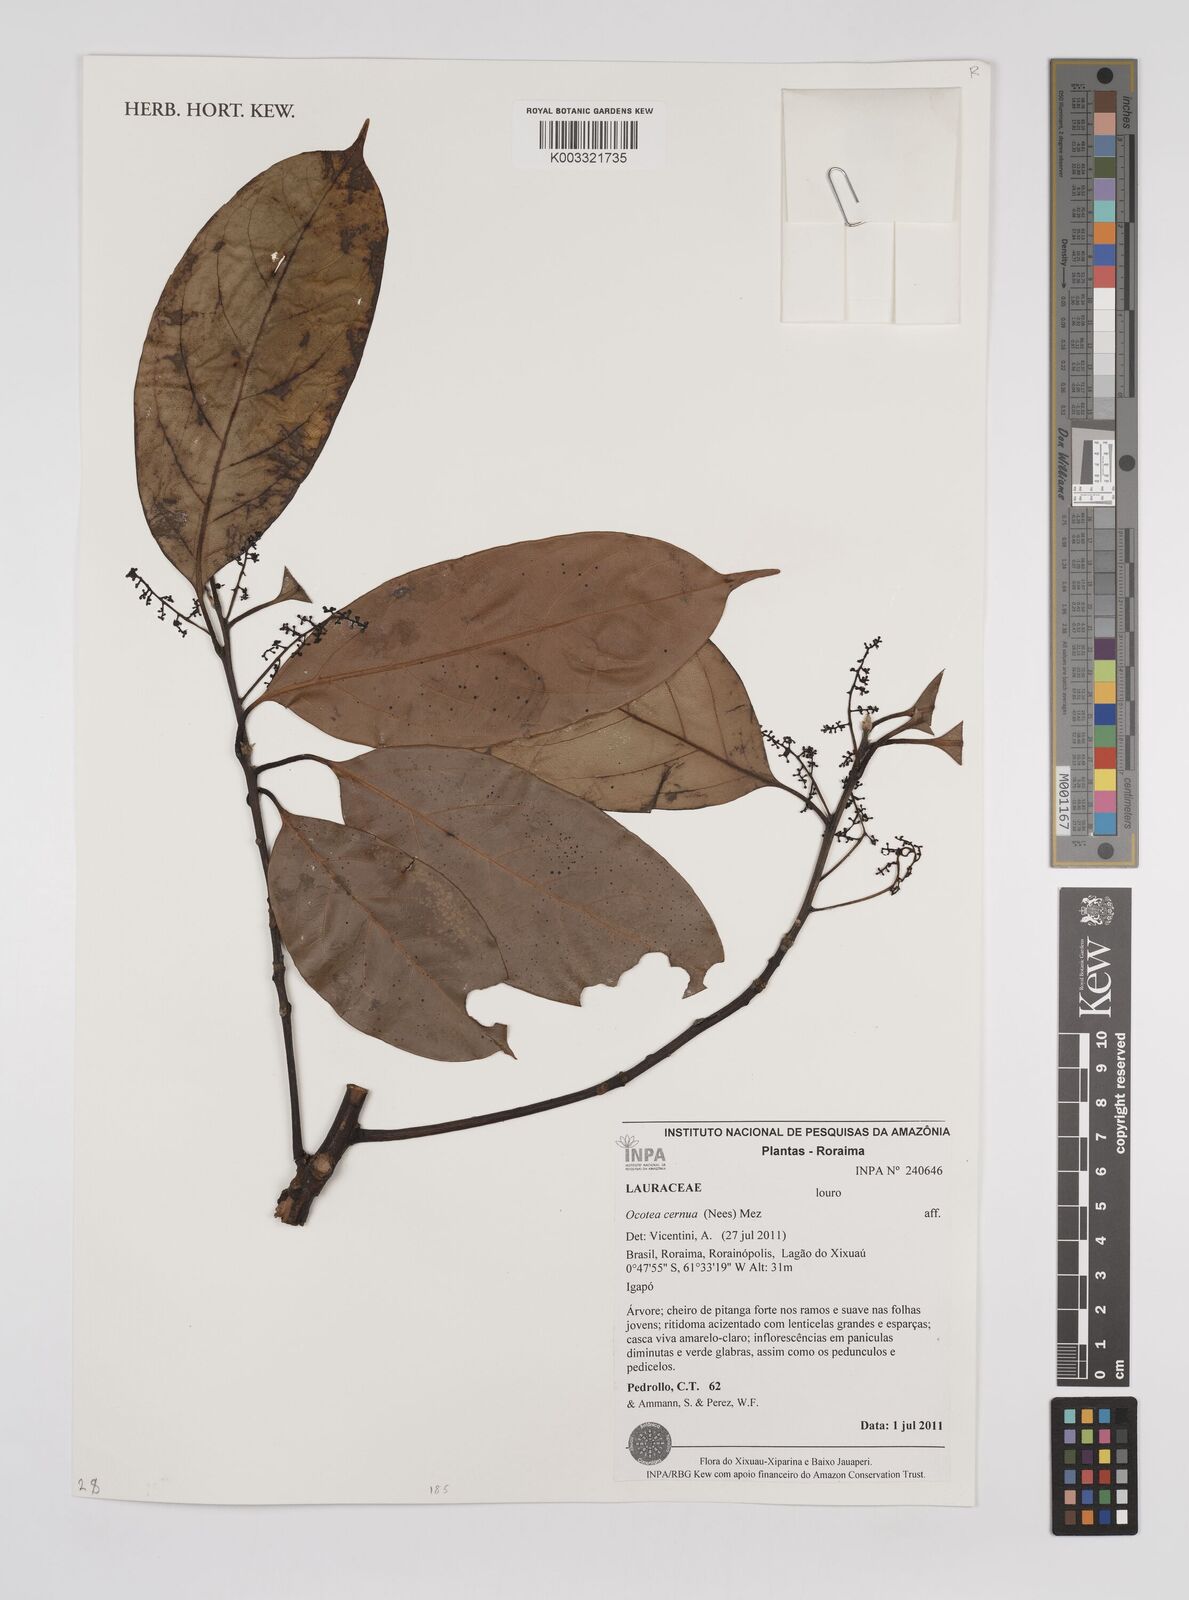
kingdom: Plantae
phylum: Tracheophyta
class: Magnoliopsida
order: Laurales
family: Lauraceae
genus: Ocotea
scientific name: Ocotea leptobotra
